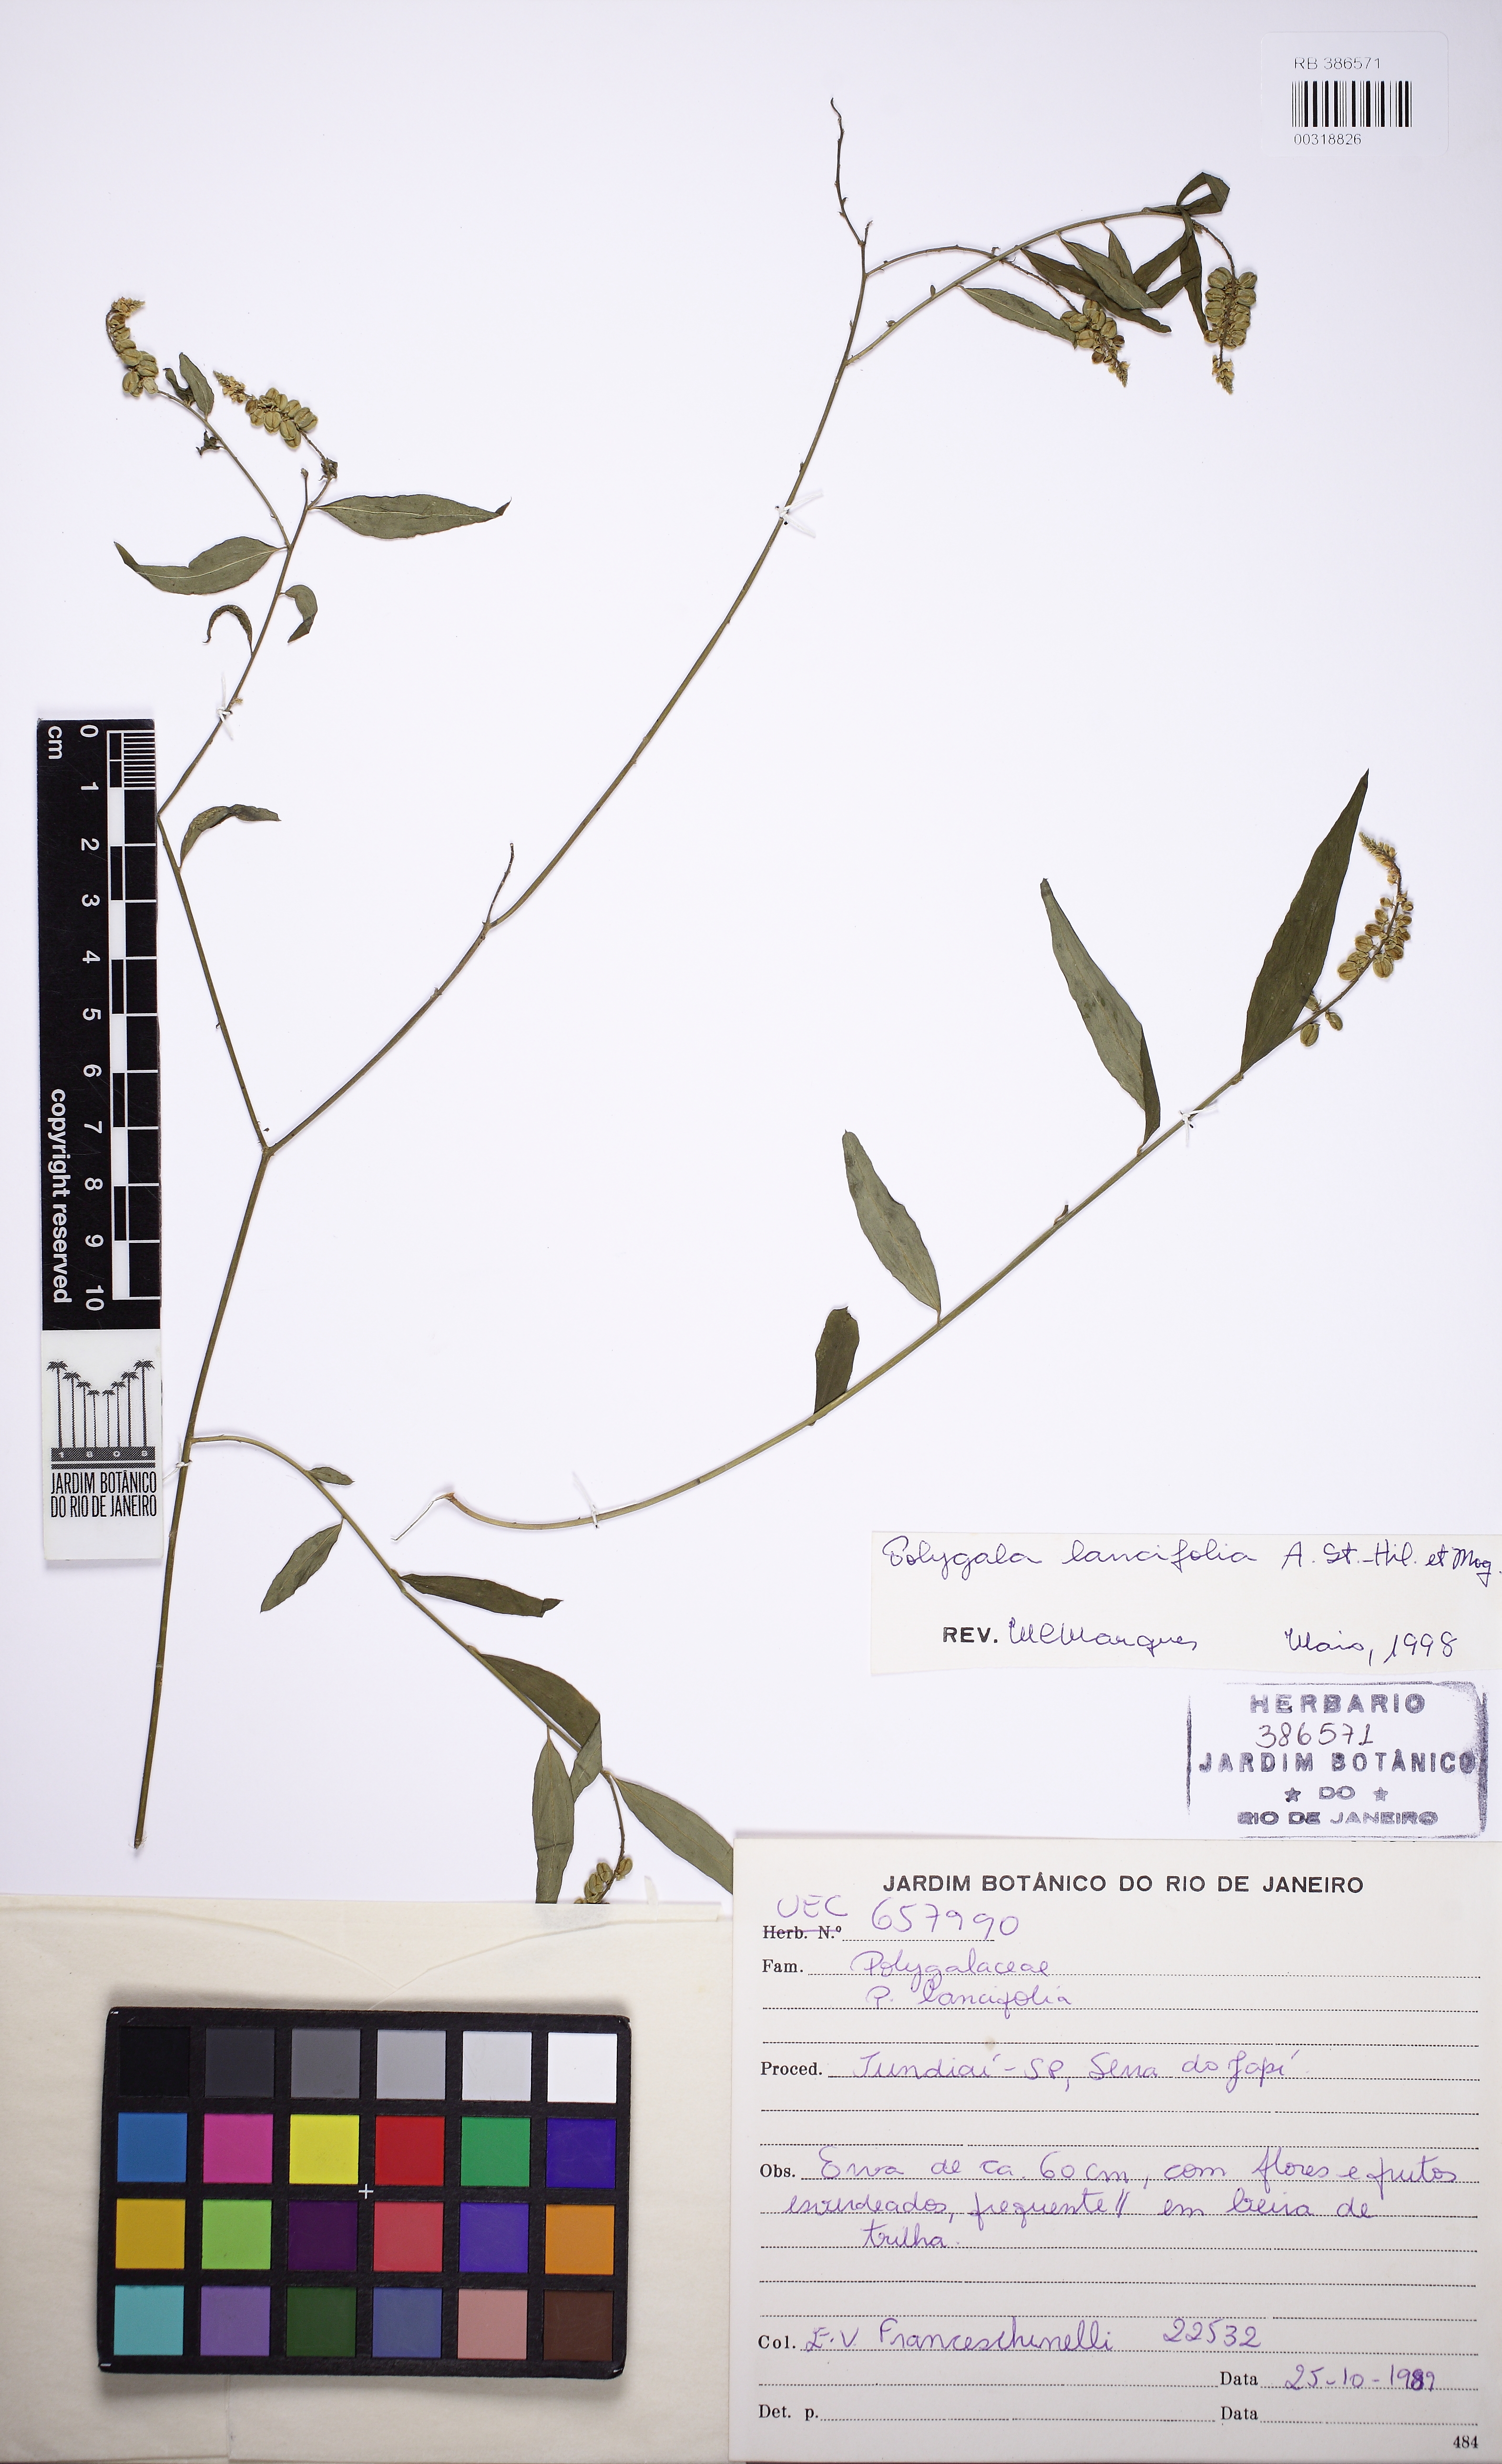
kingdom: Plantae
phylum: Tracheophyta
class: Magnoliopsida
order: Fabales
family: Polygalaceae
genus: Polygala
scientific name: Polygala lancifolia
